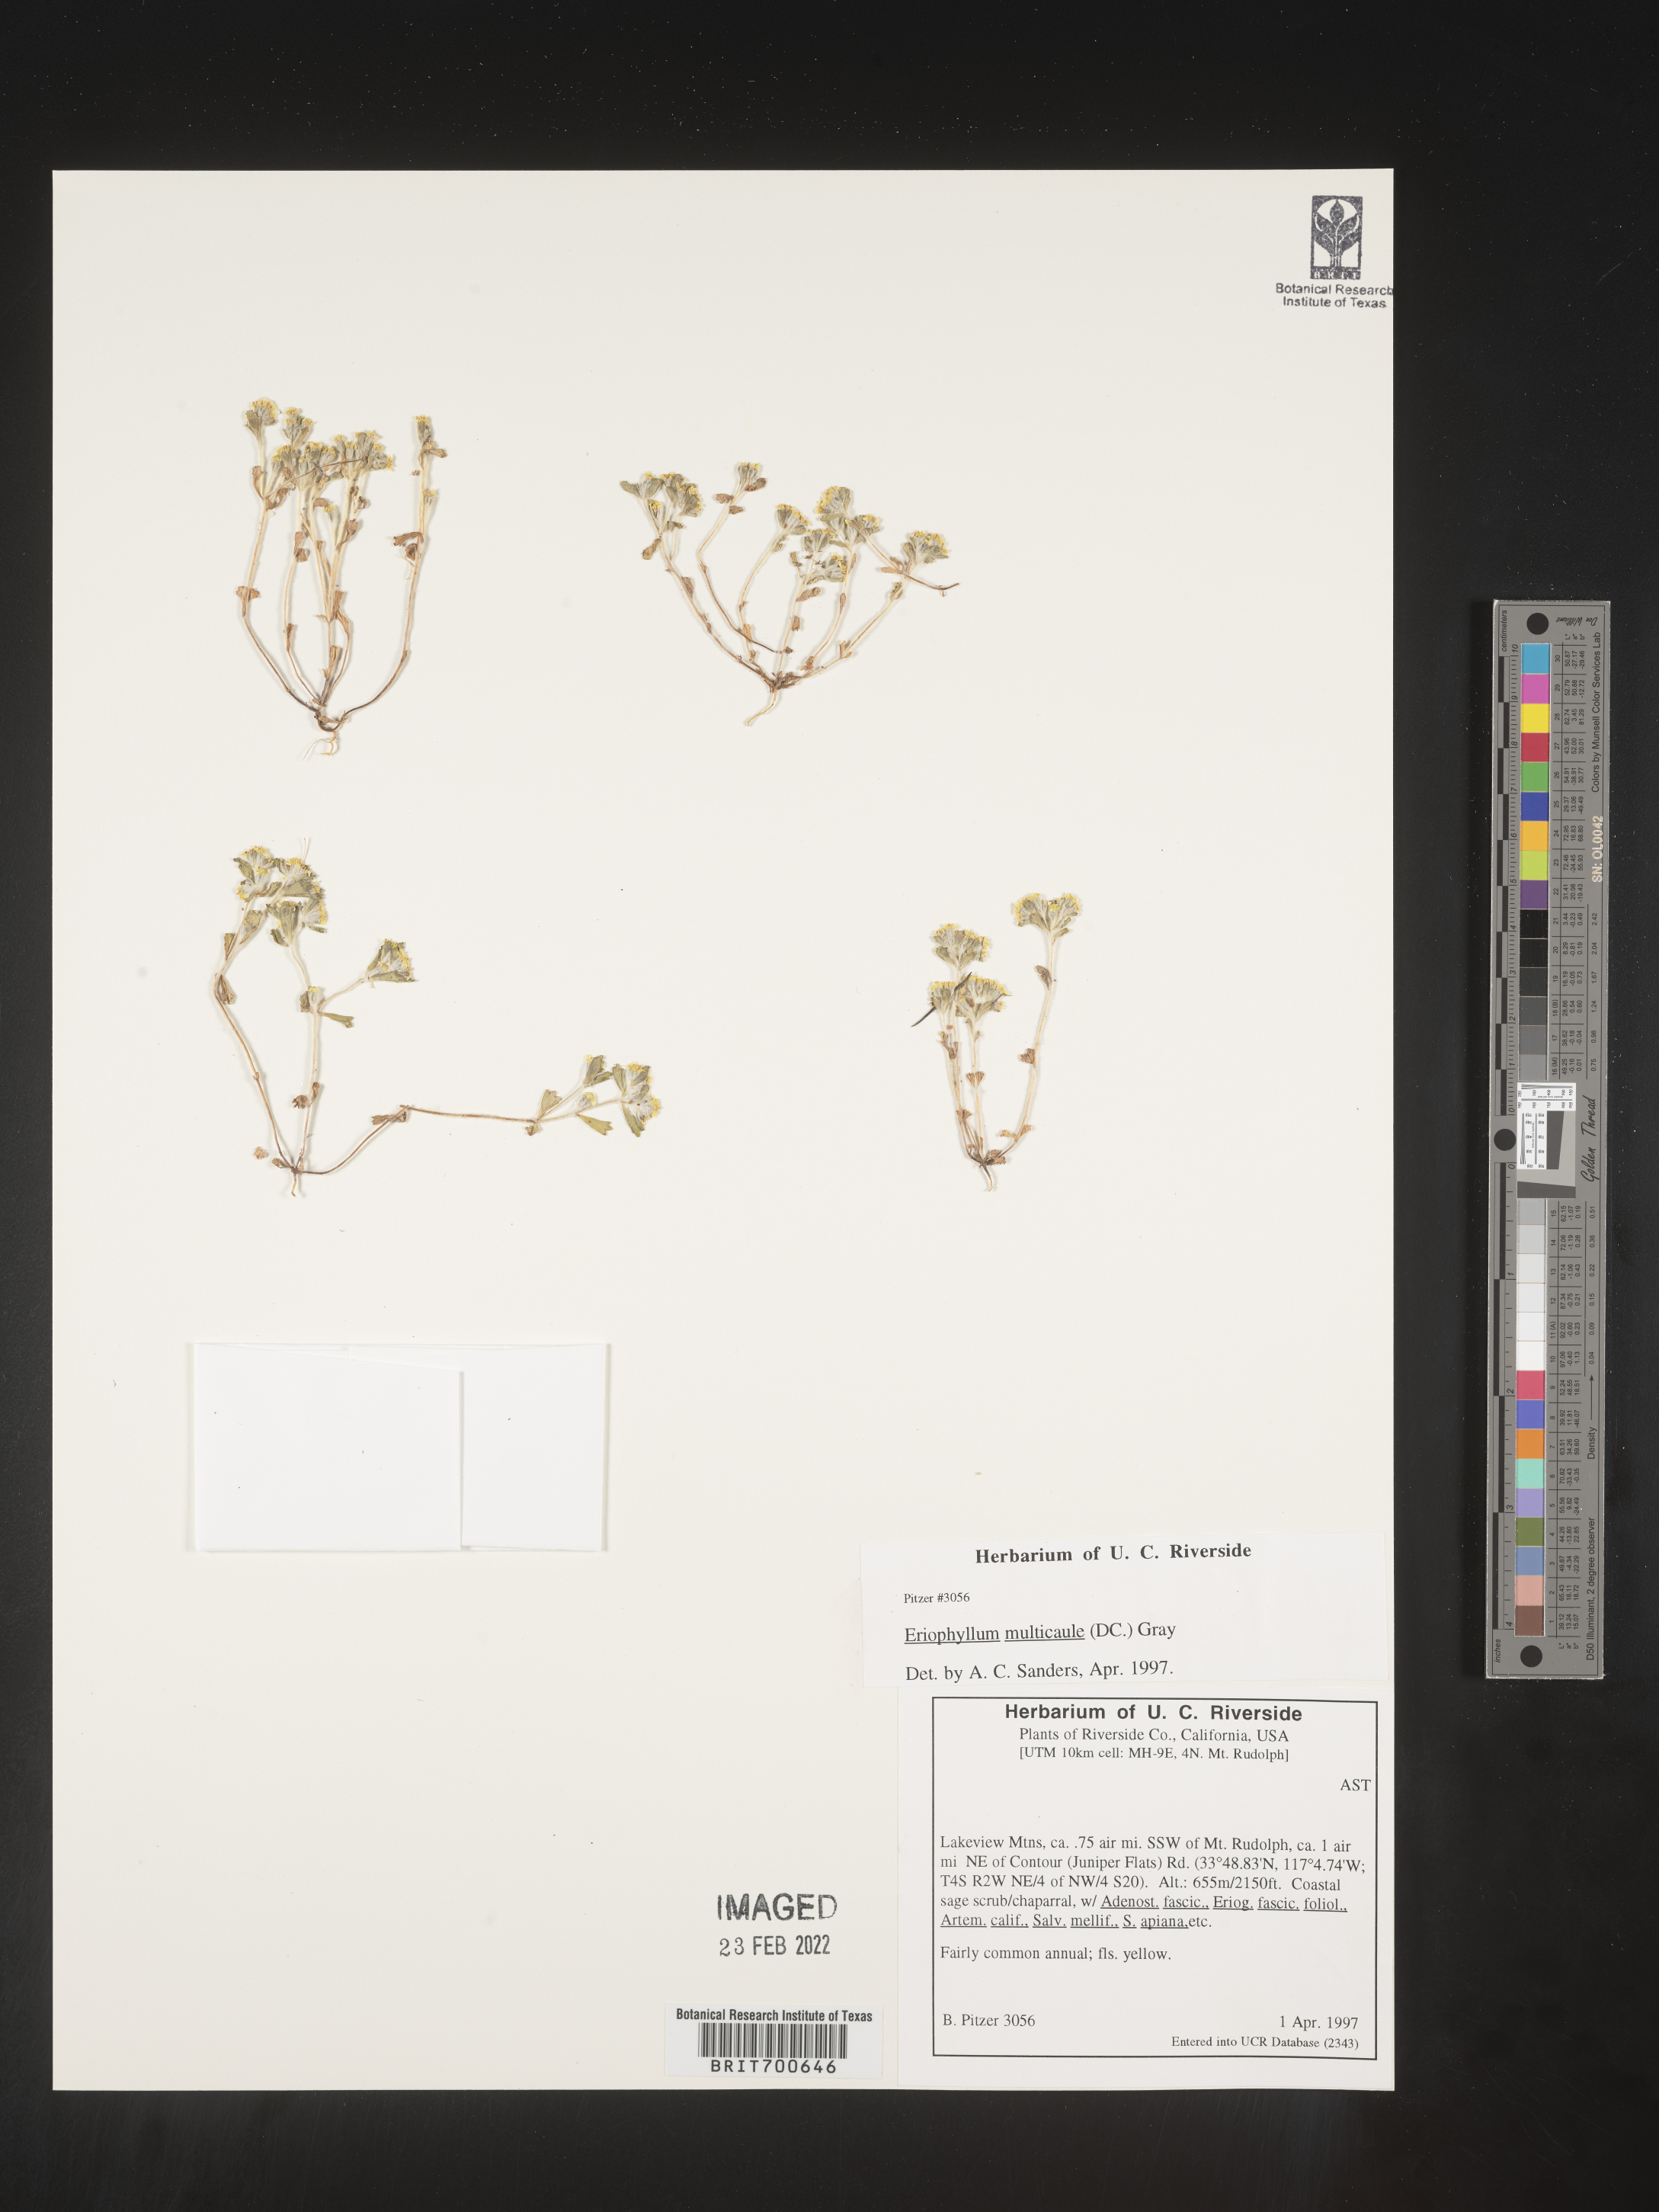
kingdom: Plantae
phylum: Tracheophyta
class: Magnoliopsida
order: Asterales
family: Asteraceae
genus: Eriophyllum
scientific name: Eriophyllum multicaule
